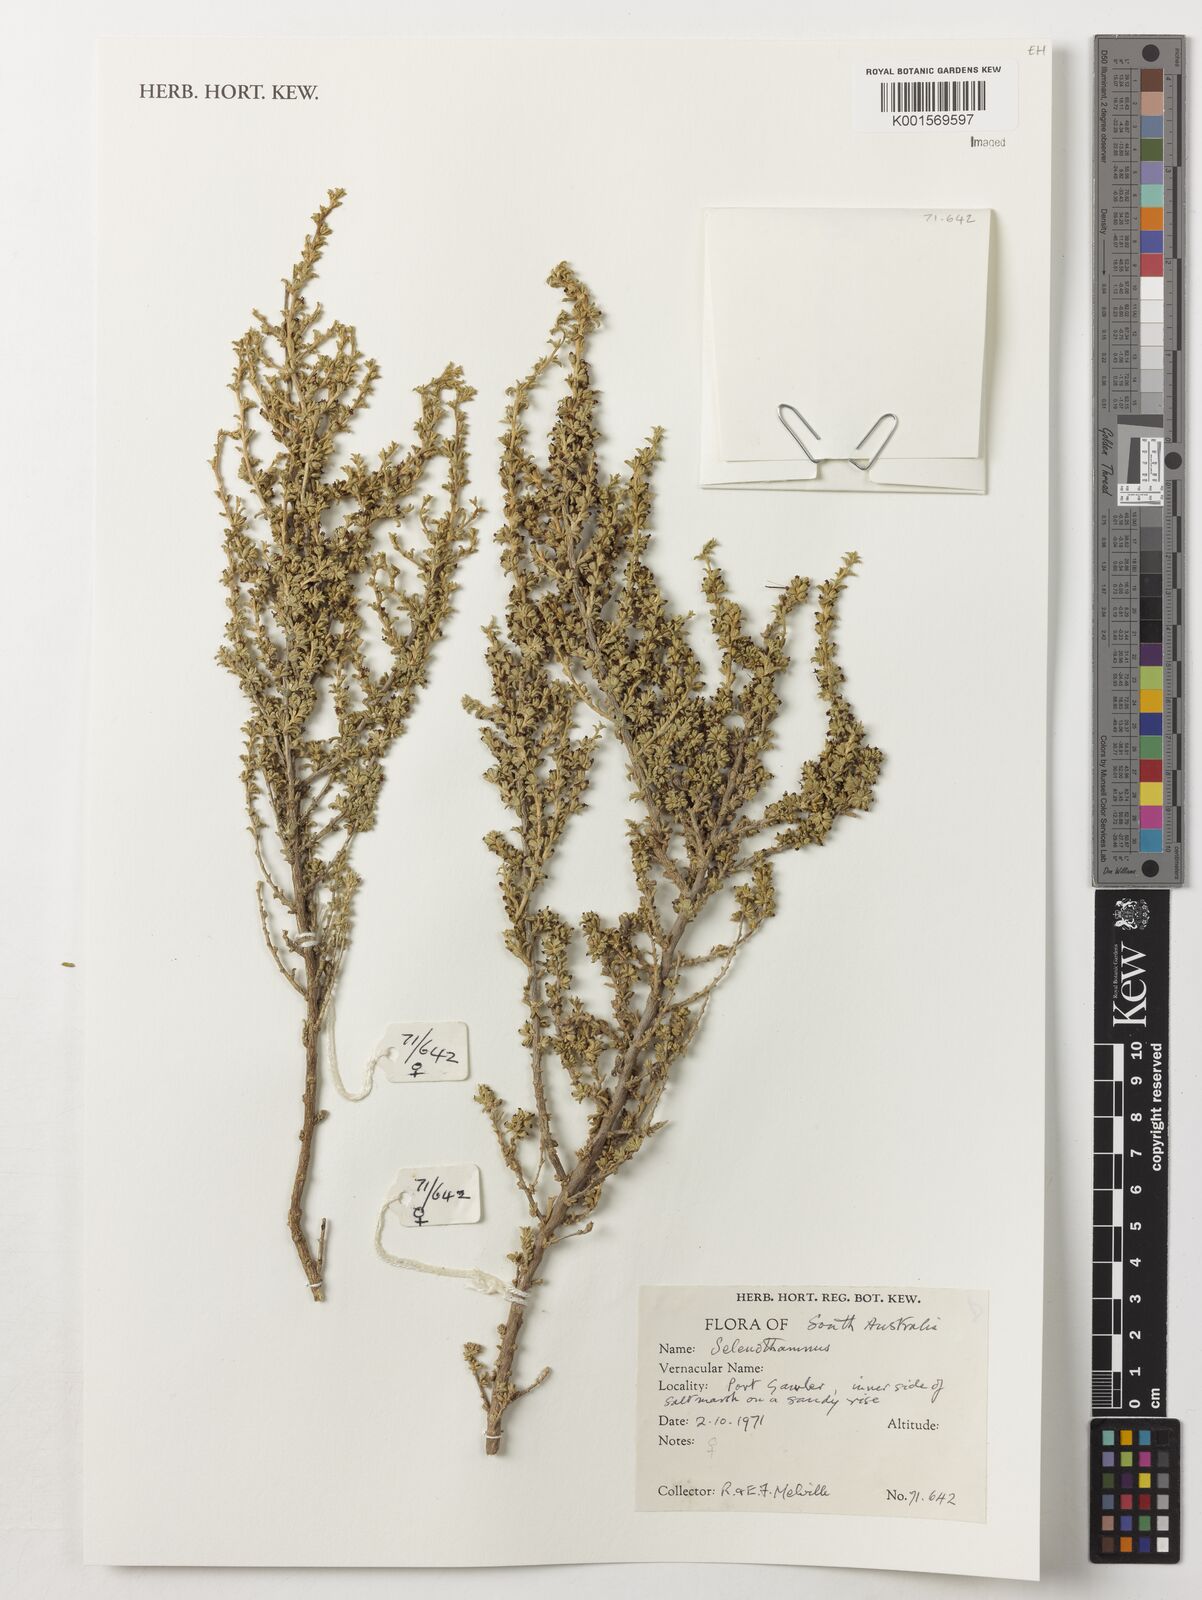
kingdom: Plantae
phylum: Tracheophyta
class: Magnoliopsida
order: Malvales
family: Malvaceae
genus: Lawrencia
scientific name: Lawrencia
